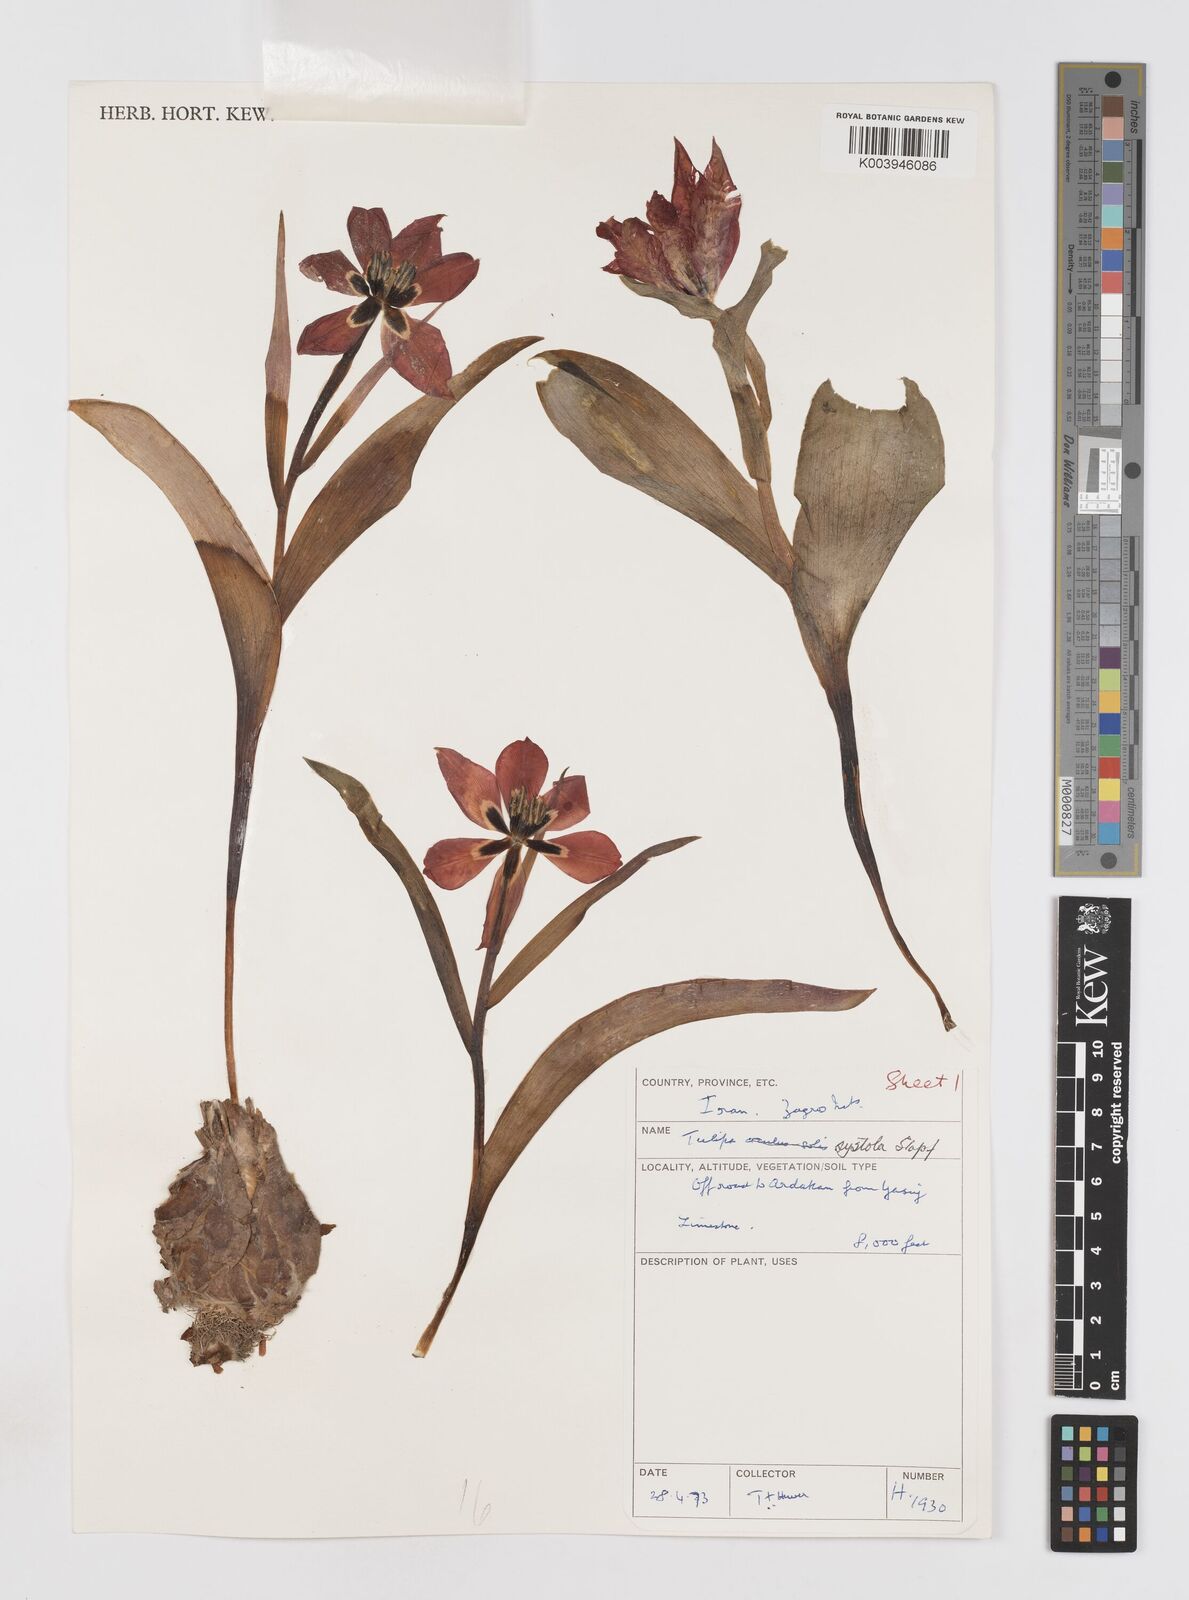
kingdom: Plantae
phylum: Tracheophyta
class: Liliopsida
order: Liliales
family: Liliaceae
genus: Tulipa
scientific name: Tulipa systola
